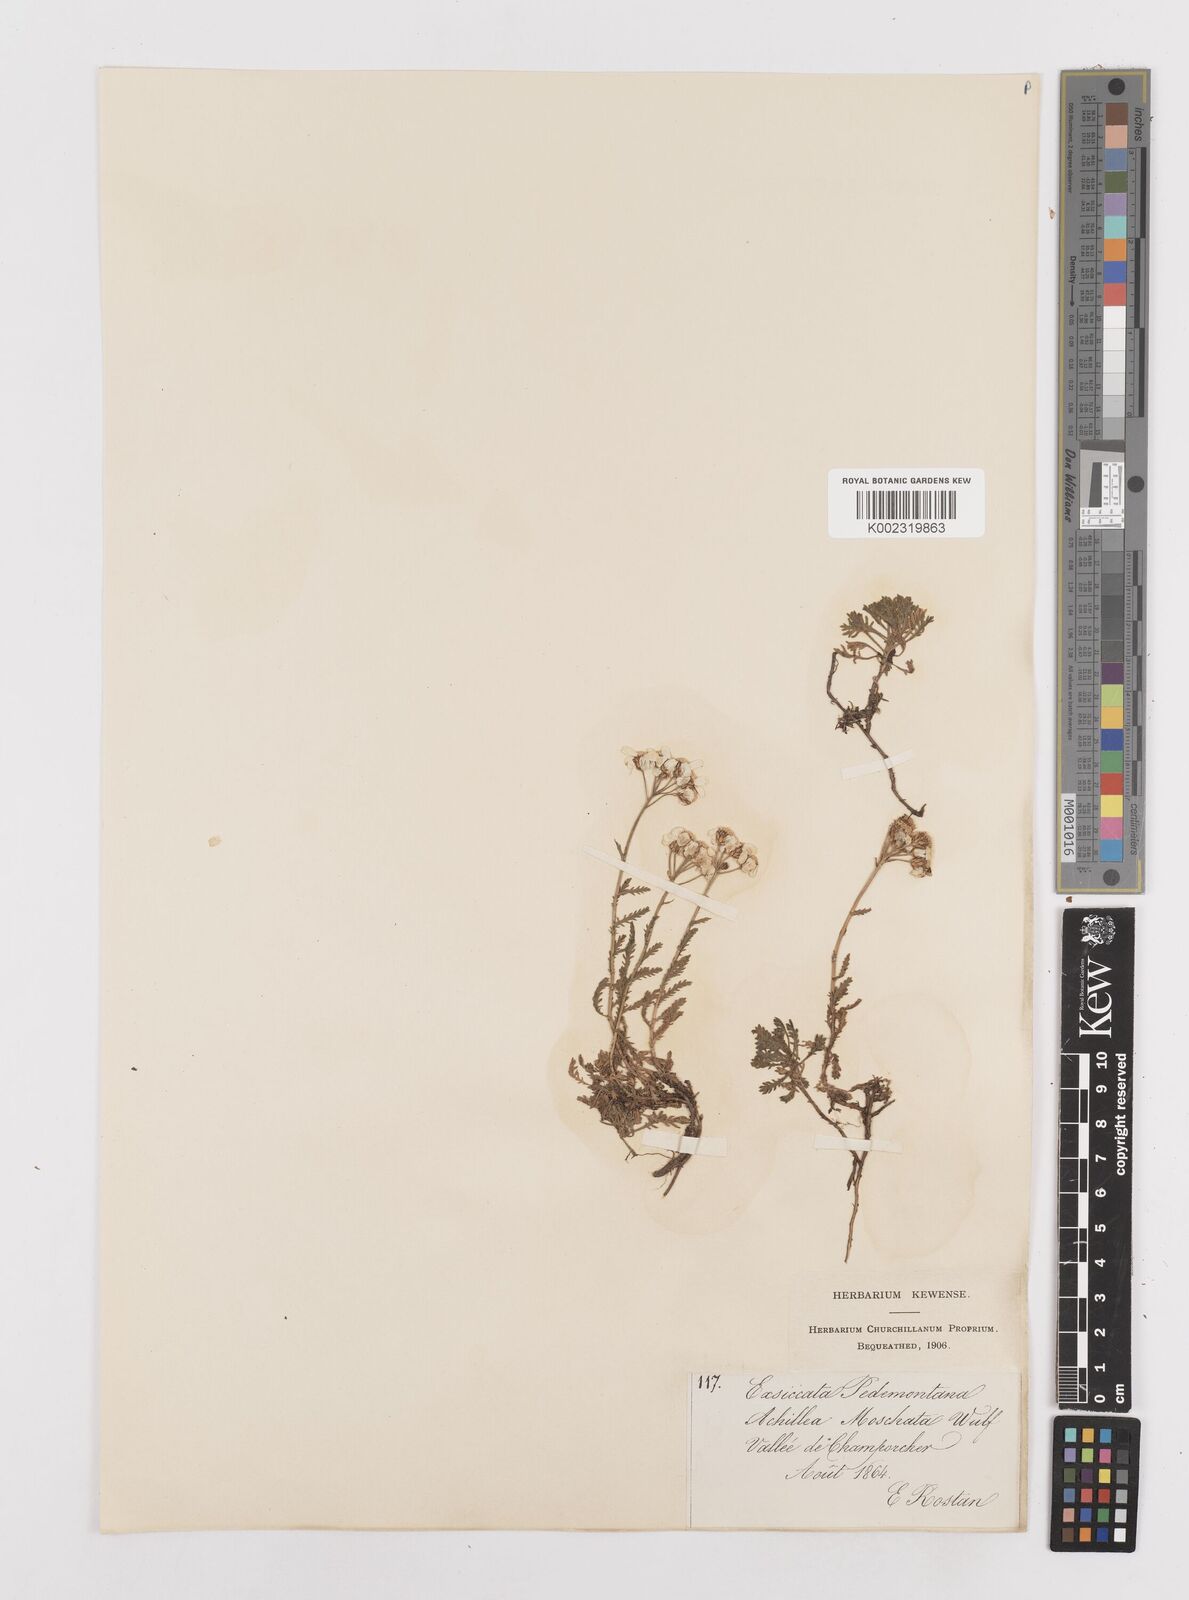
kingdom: Plantae
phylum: Tracheophyta
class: Magnoliopsida
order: Asterales
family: Asteraceae
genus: Achillea
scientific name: Achillea erba-rotta
